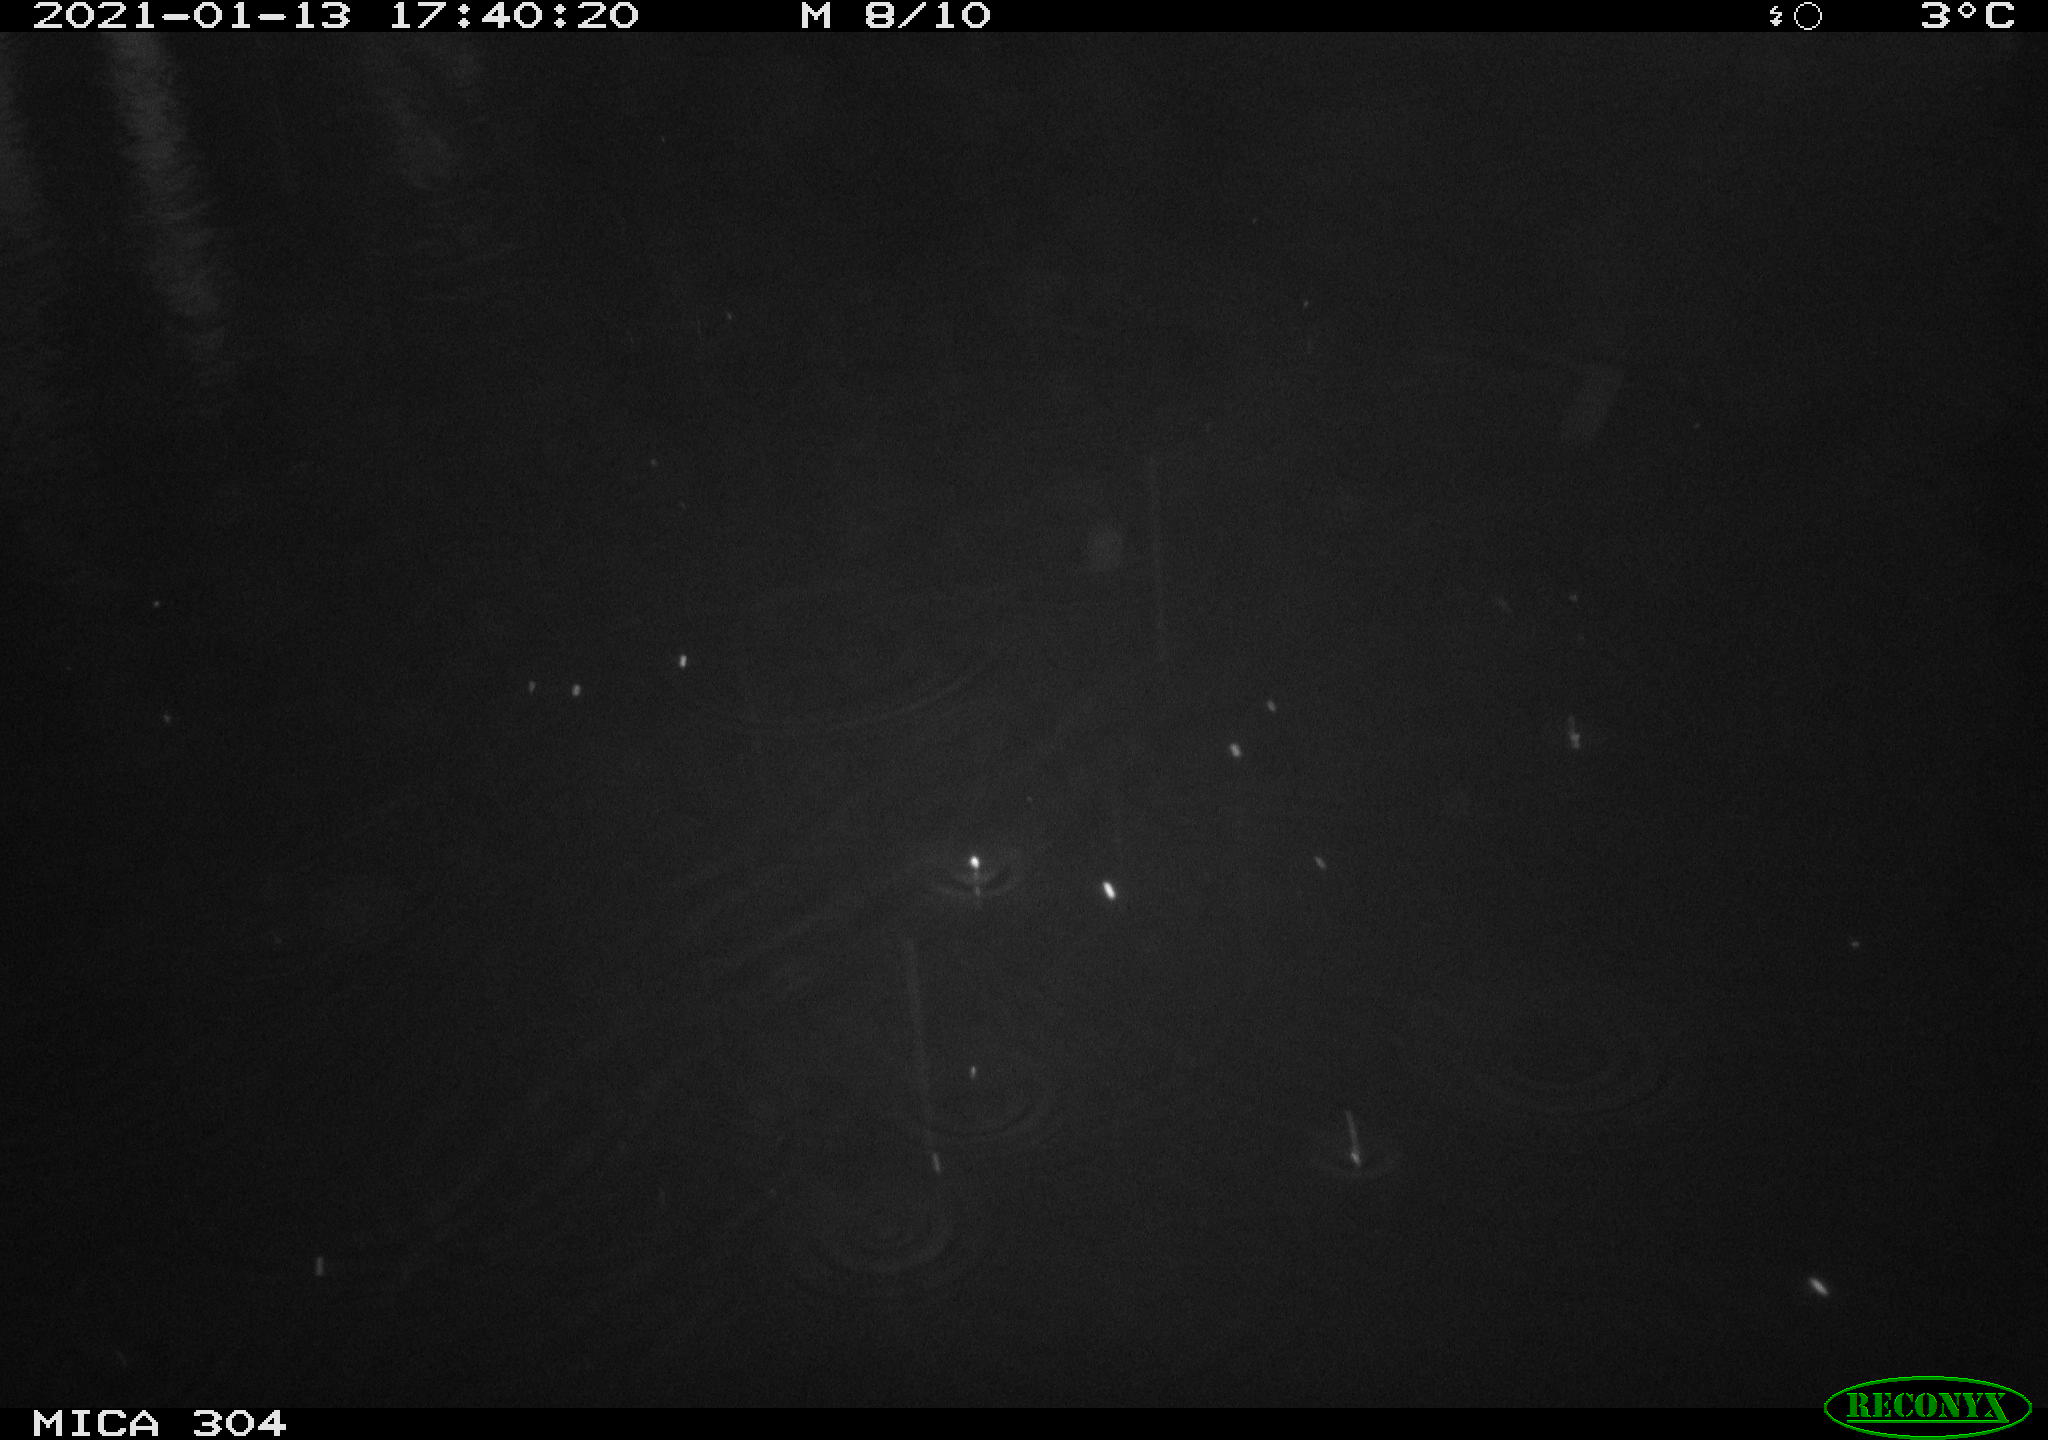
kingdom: Animalia
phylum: Chordata
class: Mammalia
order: Rodentia
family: Muridae
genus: Rattus
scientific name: Rattus norvegicus
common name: Brown rat
